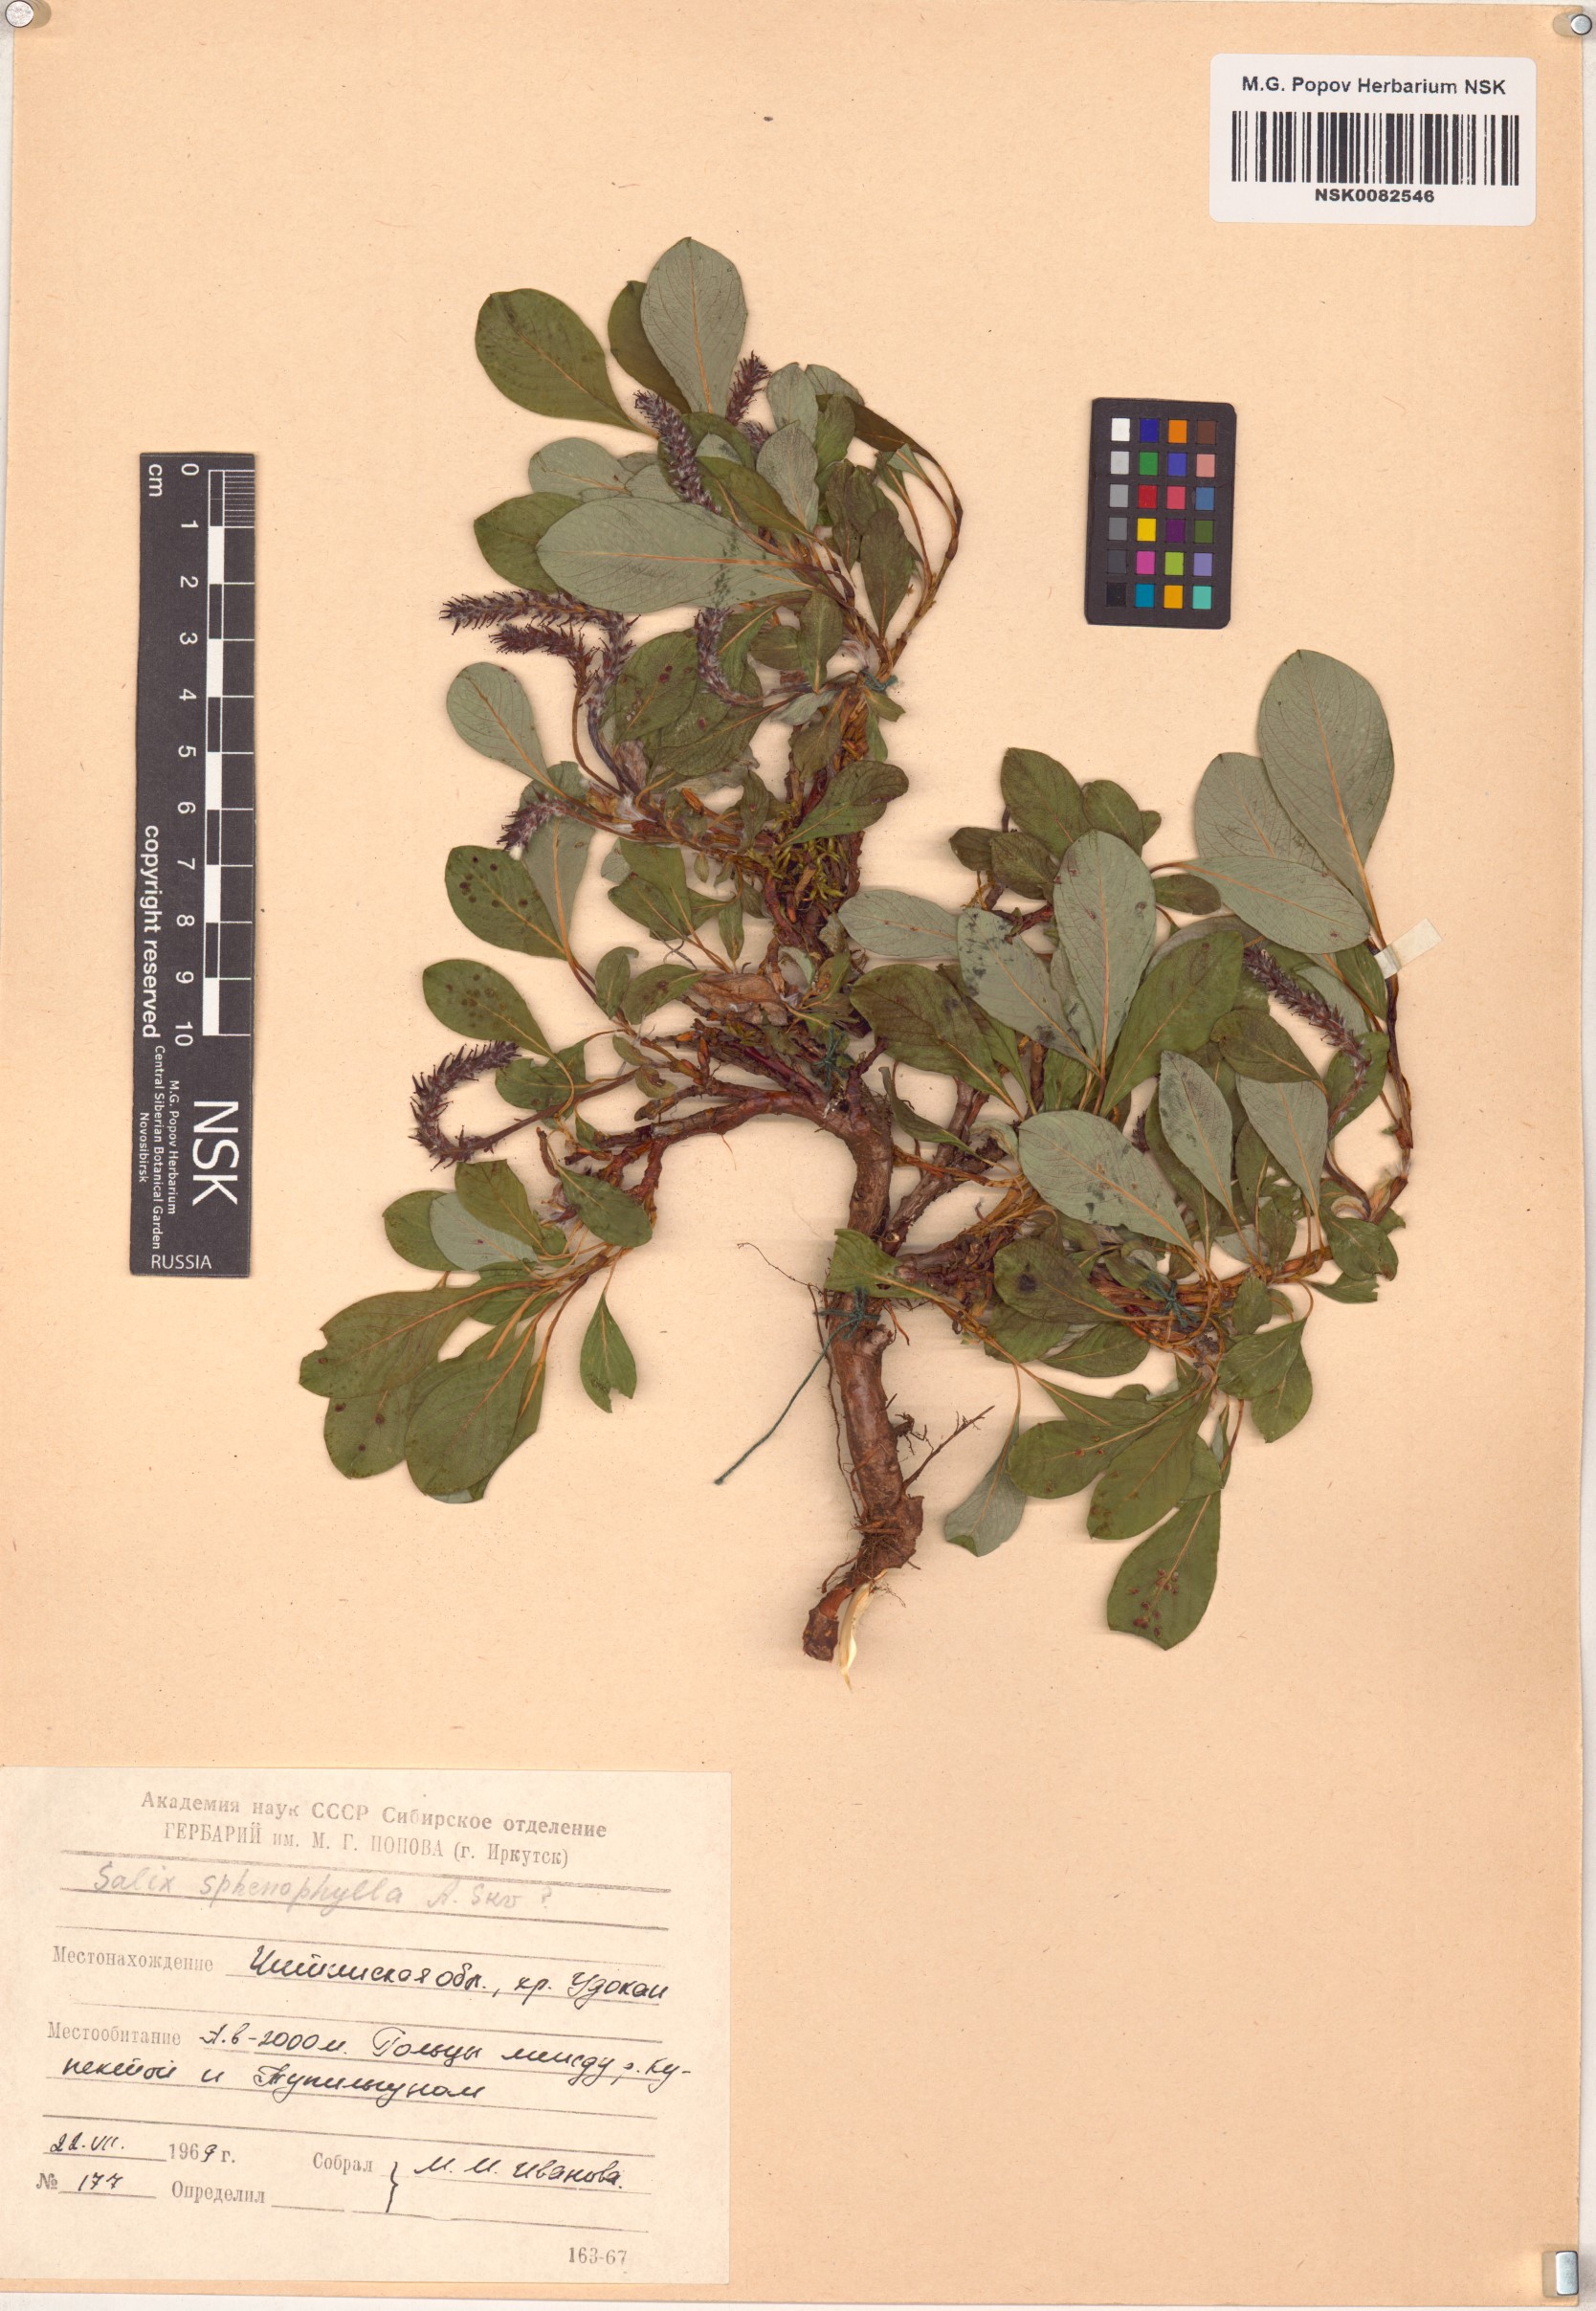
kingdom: Plantae
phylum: Tracheophyta
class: Magnoliopsida
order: Malpighiales
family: Salicaceae
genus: Salix
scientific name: Salix sphenophylla
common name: Wedge-leaved willow
